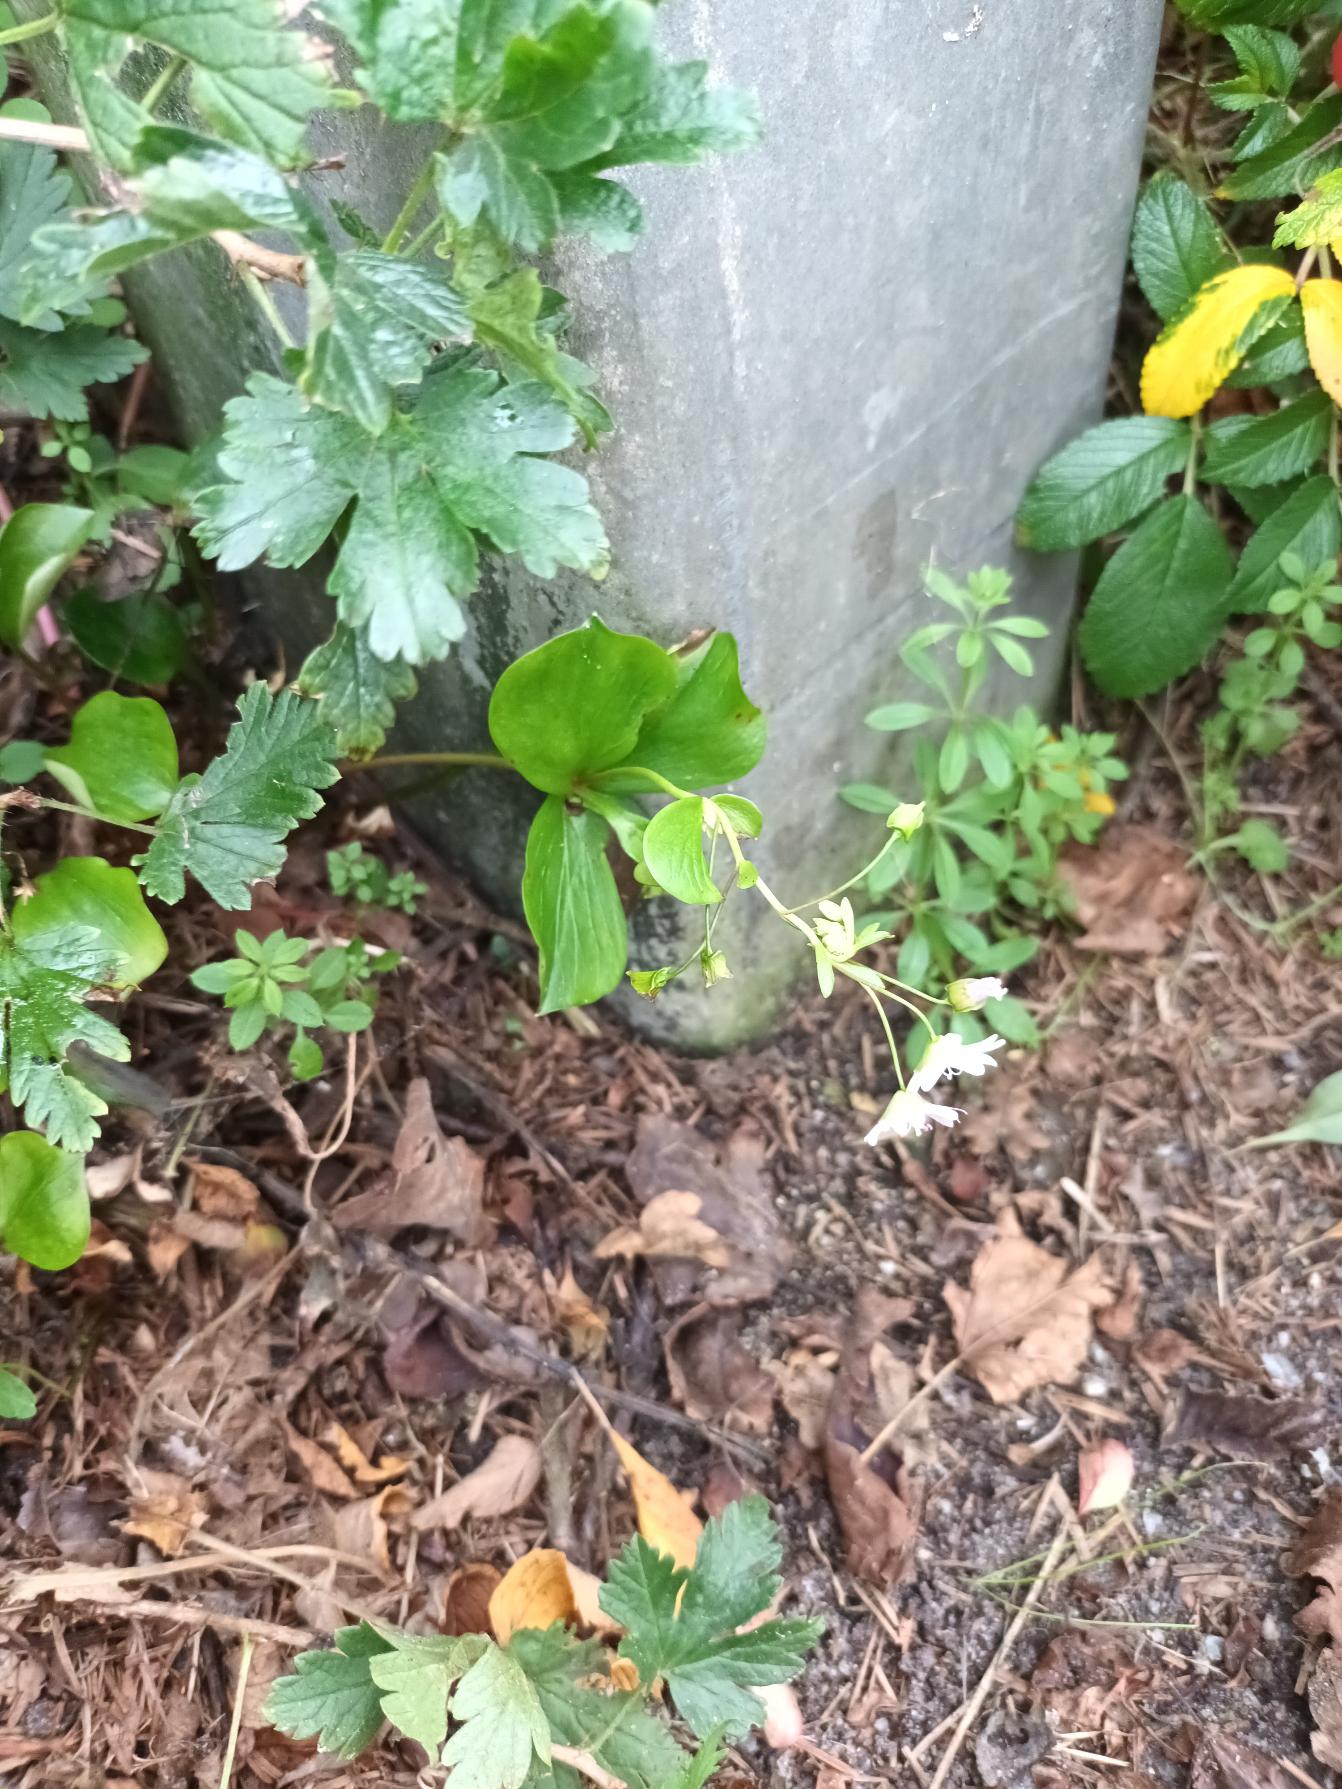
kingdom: Plantae
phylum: Tracheophyta
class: Magnoliopsida
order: Caryophyllales
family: Montiaceae
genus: Claytonia
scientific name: Claytonia sibirica
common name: Sibirisk vinterportulak
